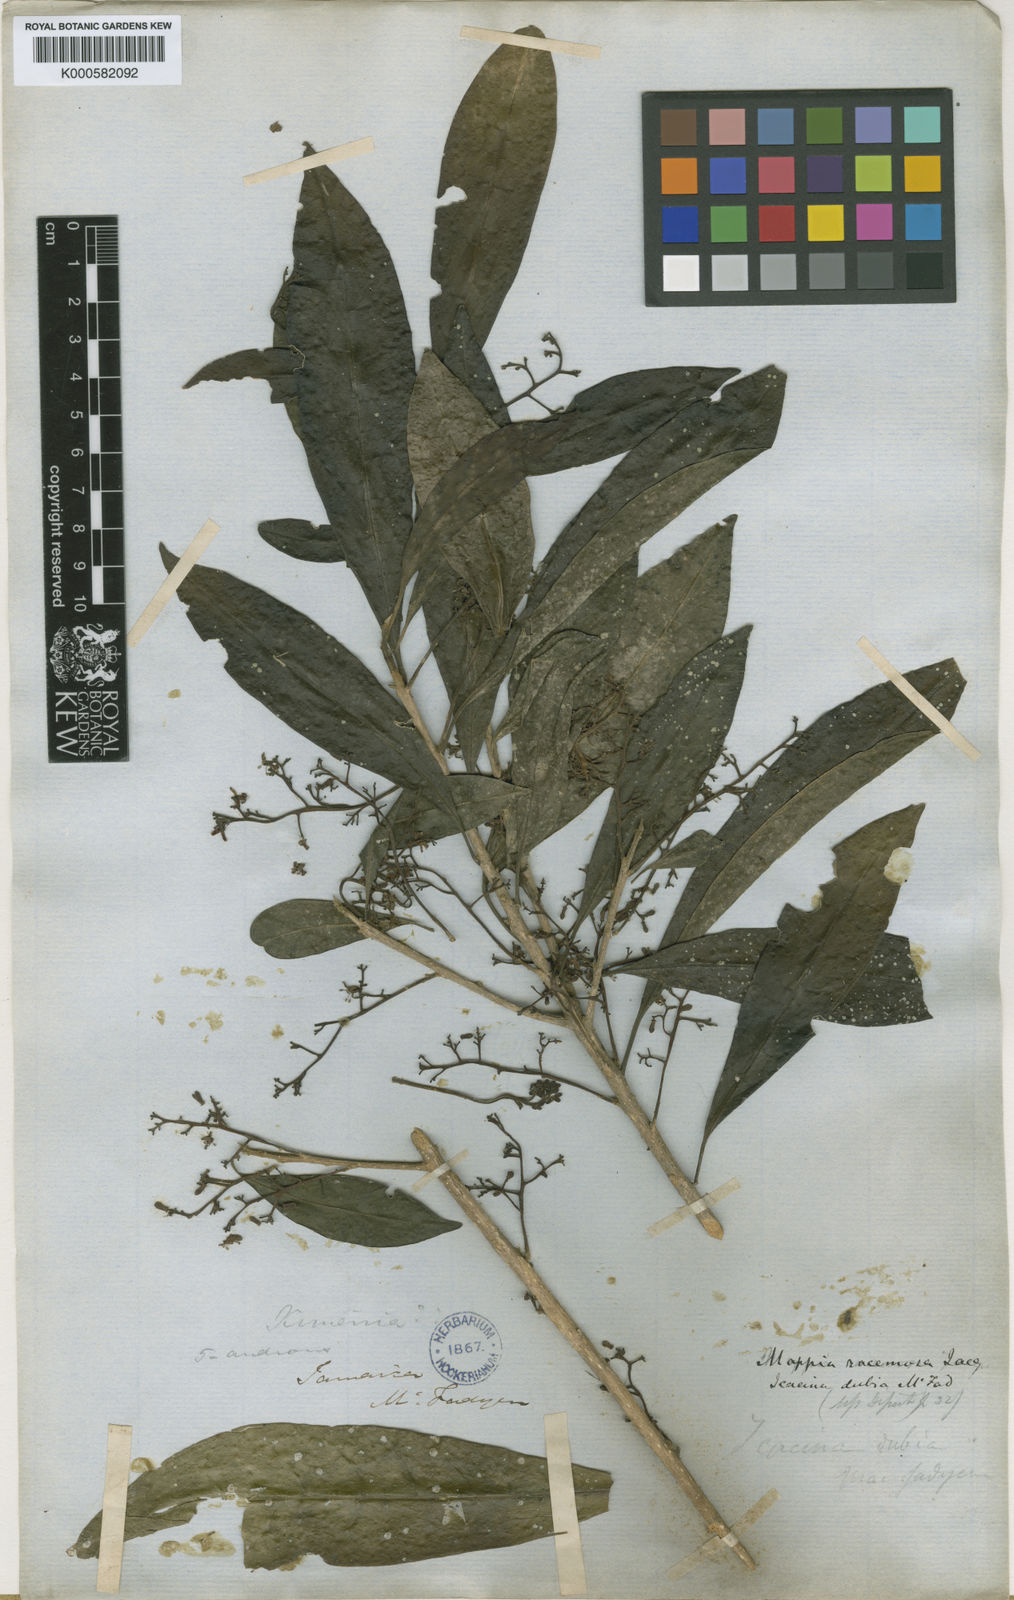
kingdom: Plantae
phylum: Tracheophyta
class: Magnoliopsida
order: Icacinales
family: Icacinaceae
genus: Mappia
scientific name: Mappia racemosa
